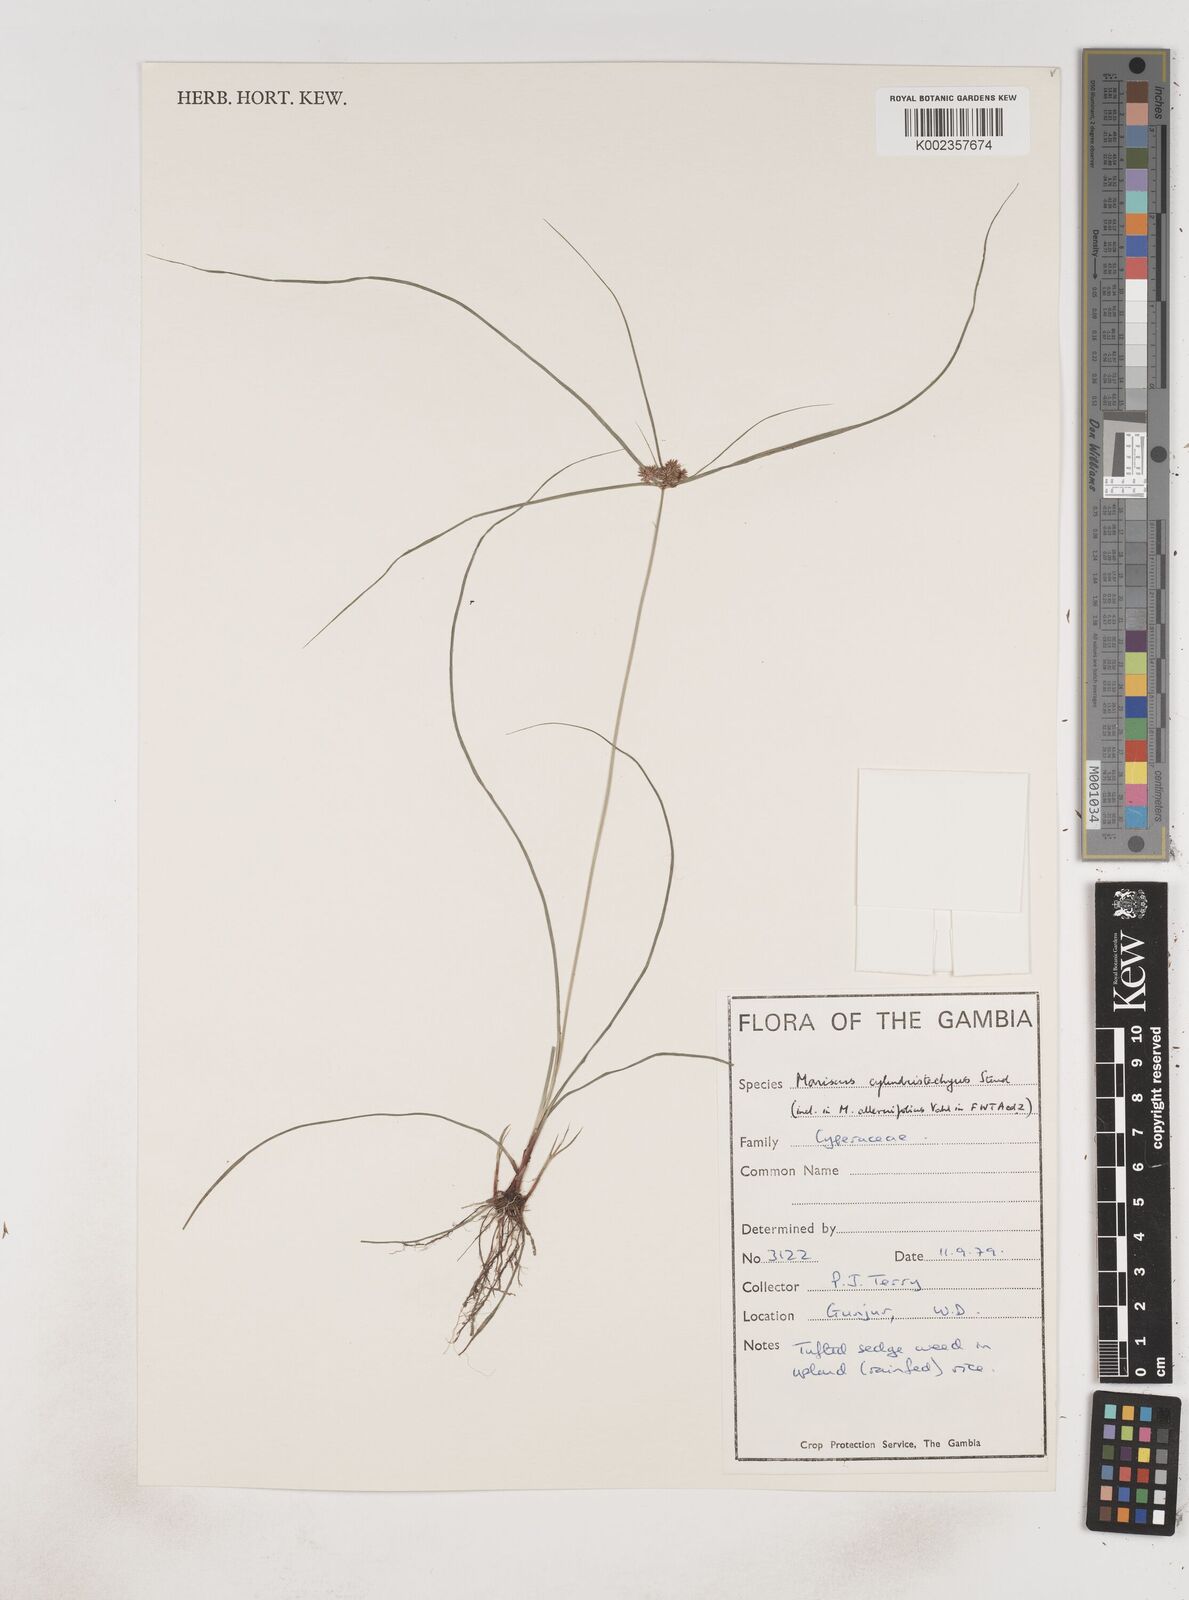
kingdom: Plantae
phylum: Tracheophyta
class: Liliopsida
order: Poales
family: Cyperaceae
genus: Cyperus
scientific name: Cyperus sublimis
